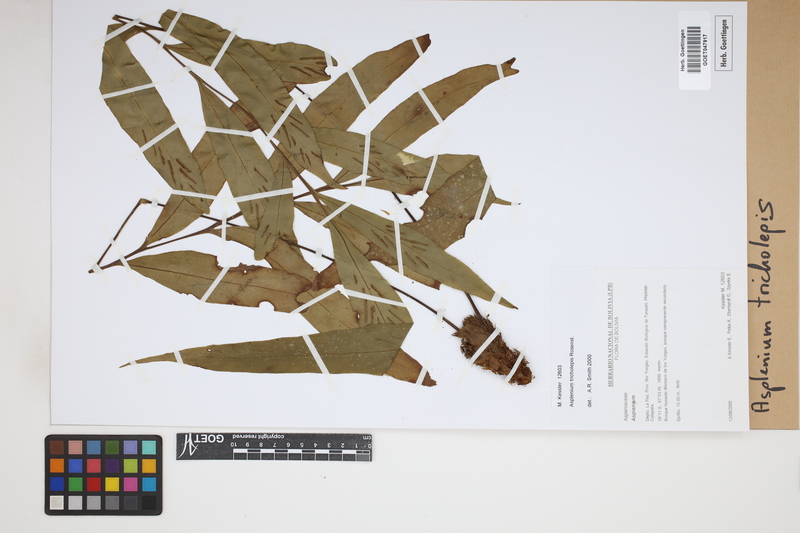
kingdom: Plantae
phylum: Tracheophyta
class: Polypodiopsida
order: Polypodiales
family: Aspleniaceae
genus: Asplenium
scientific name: Asplenium tricholepis
